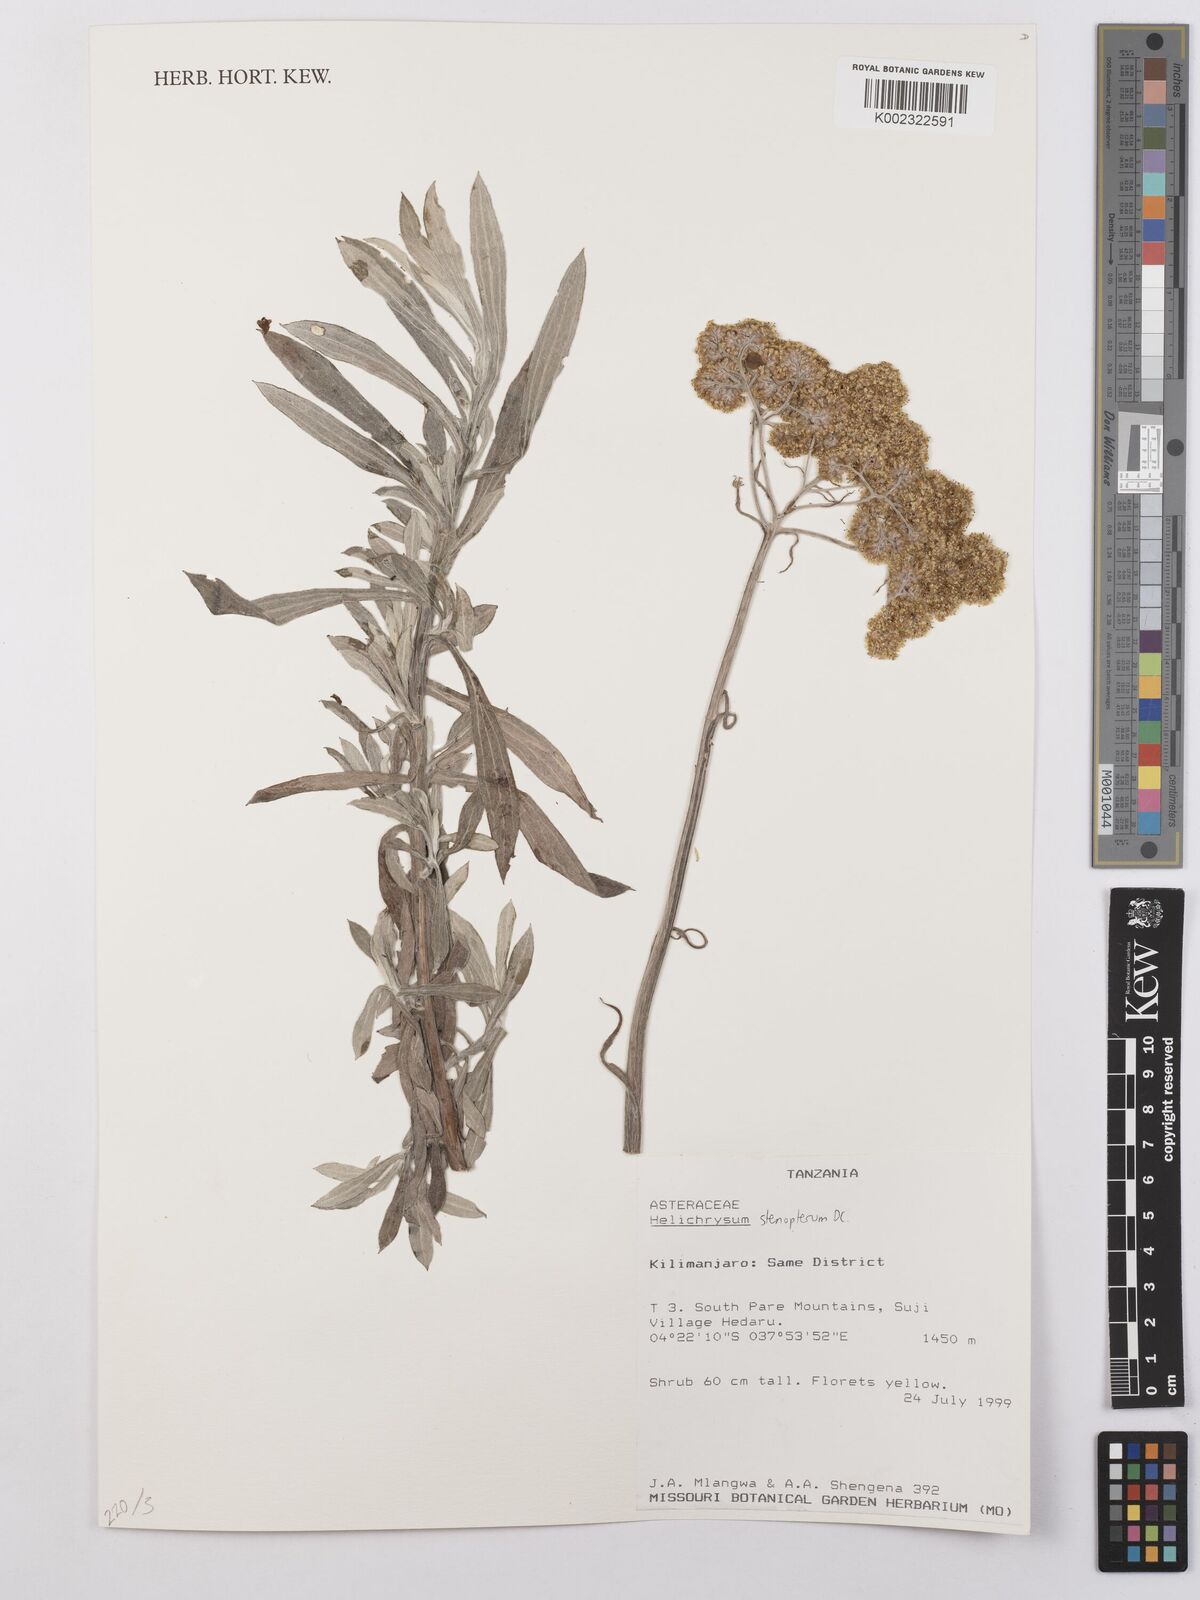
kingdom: Plantae
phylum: Tracheophyta
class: Magnoliopsida
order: Asterales
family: Asteraceae
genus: Helichrysum
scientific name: Helichrysum stenopterum
